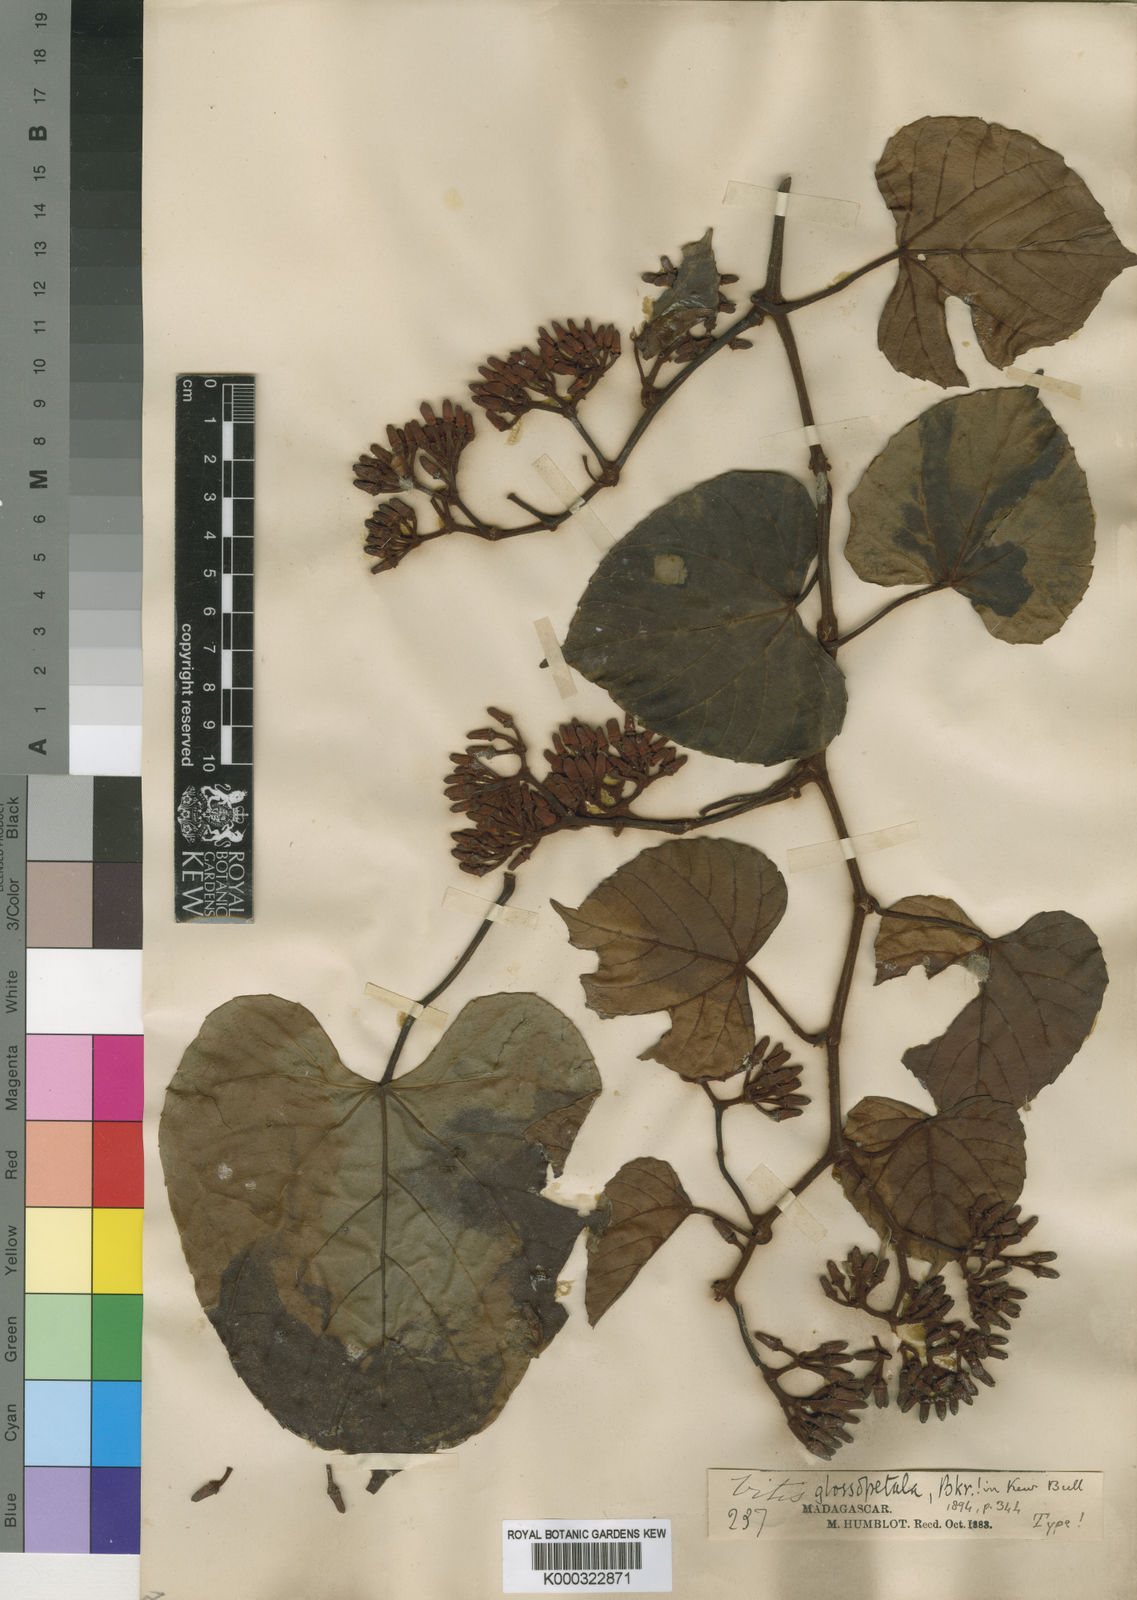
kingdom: Plantae
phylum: Tracheophyta
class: Magnoliopsida
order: Vitales
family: Vitaceae
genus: Cissus
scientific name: Cissus glossopetala
